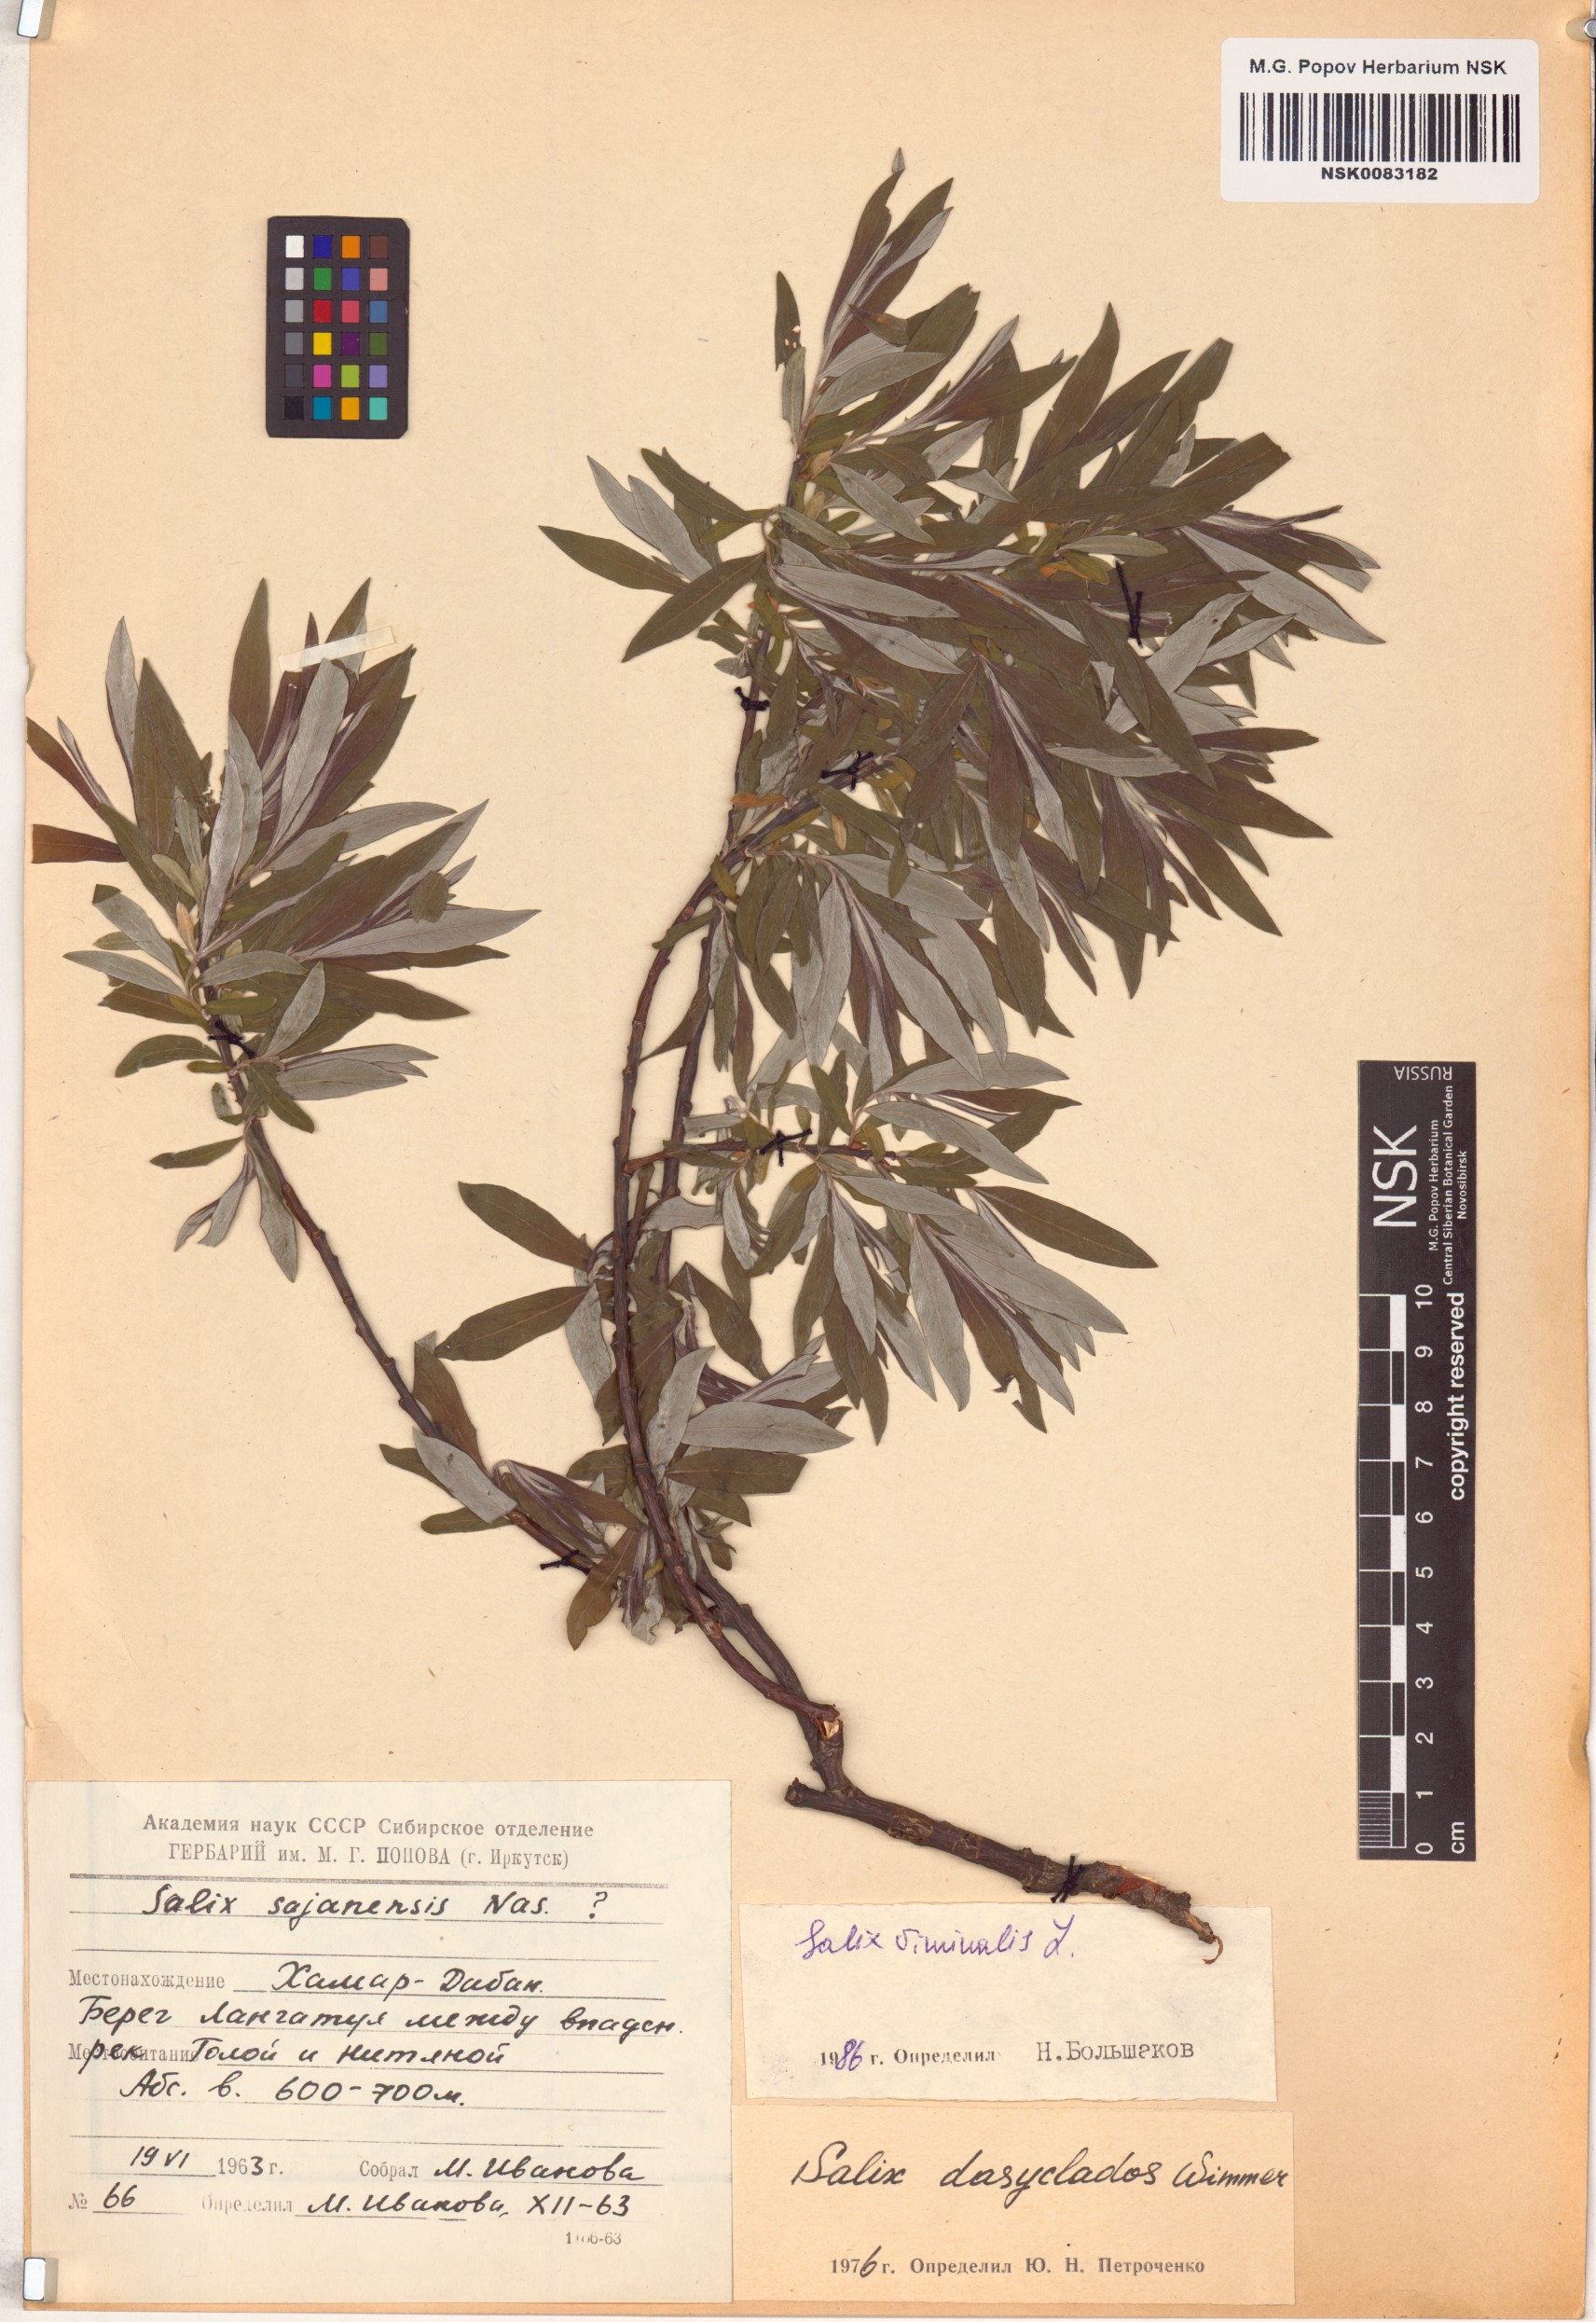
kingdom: Plantae
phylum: Tracheophyta
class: Magnoliopsida
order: Malpighiales
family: Salicaceae
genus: Salix
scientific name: Salix viminalis
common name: Osier
